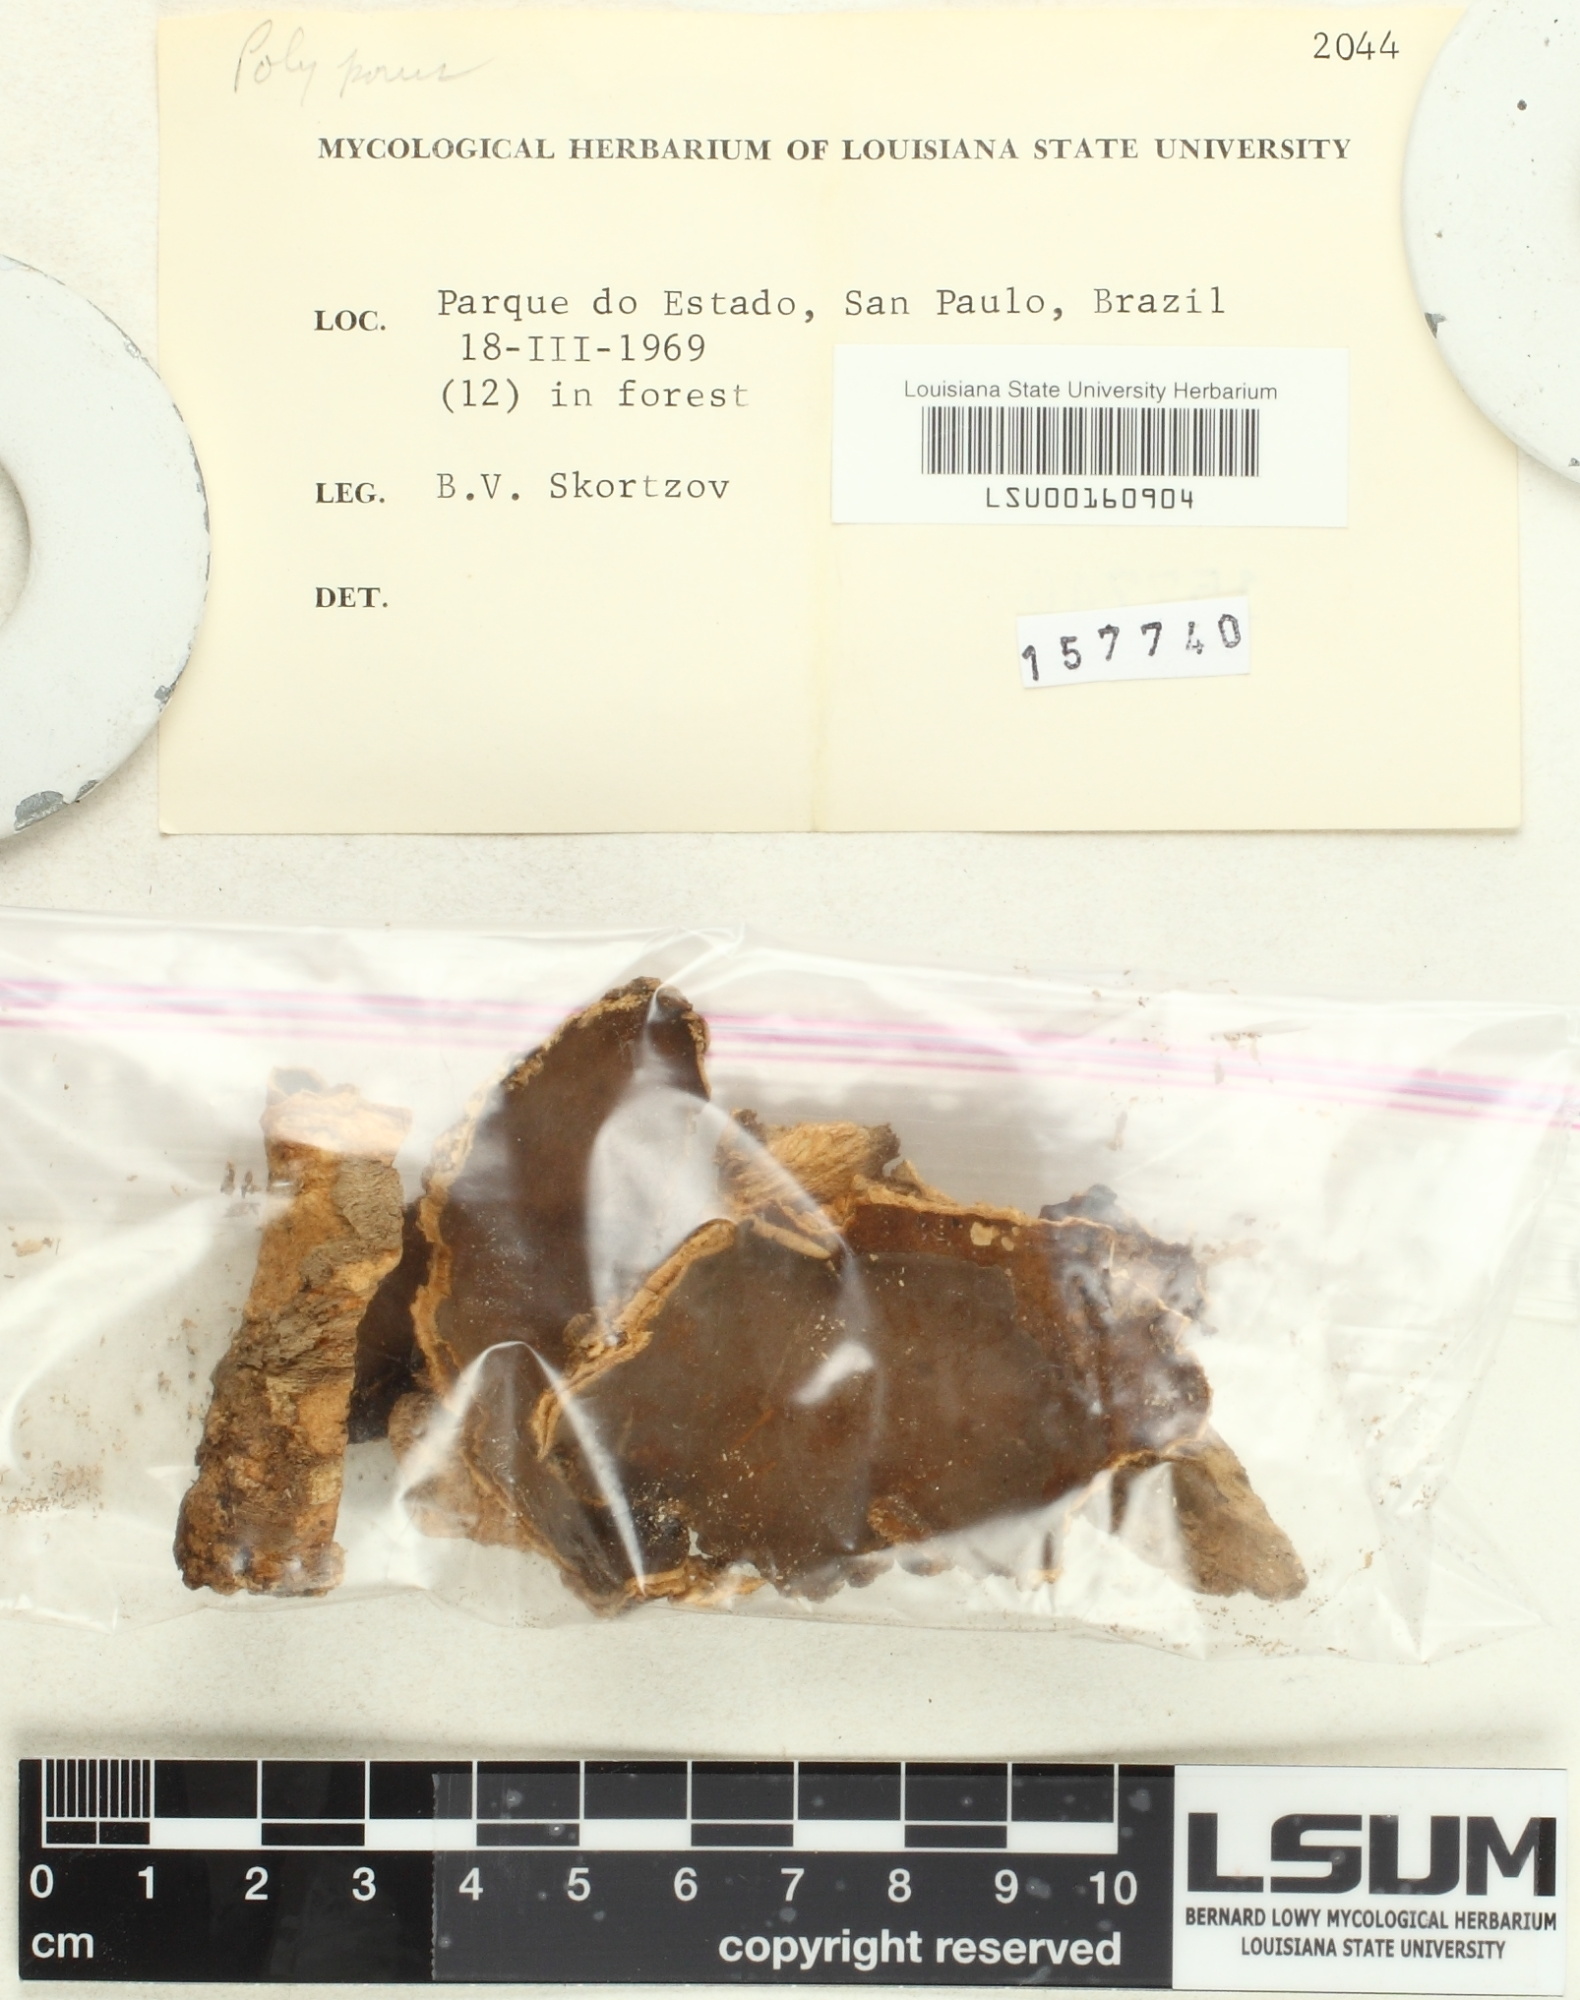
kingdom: Fungi
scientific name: Fungi
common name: Fungi
